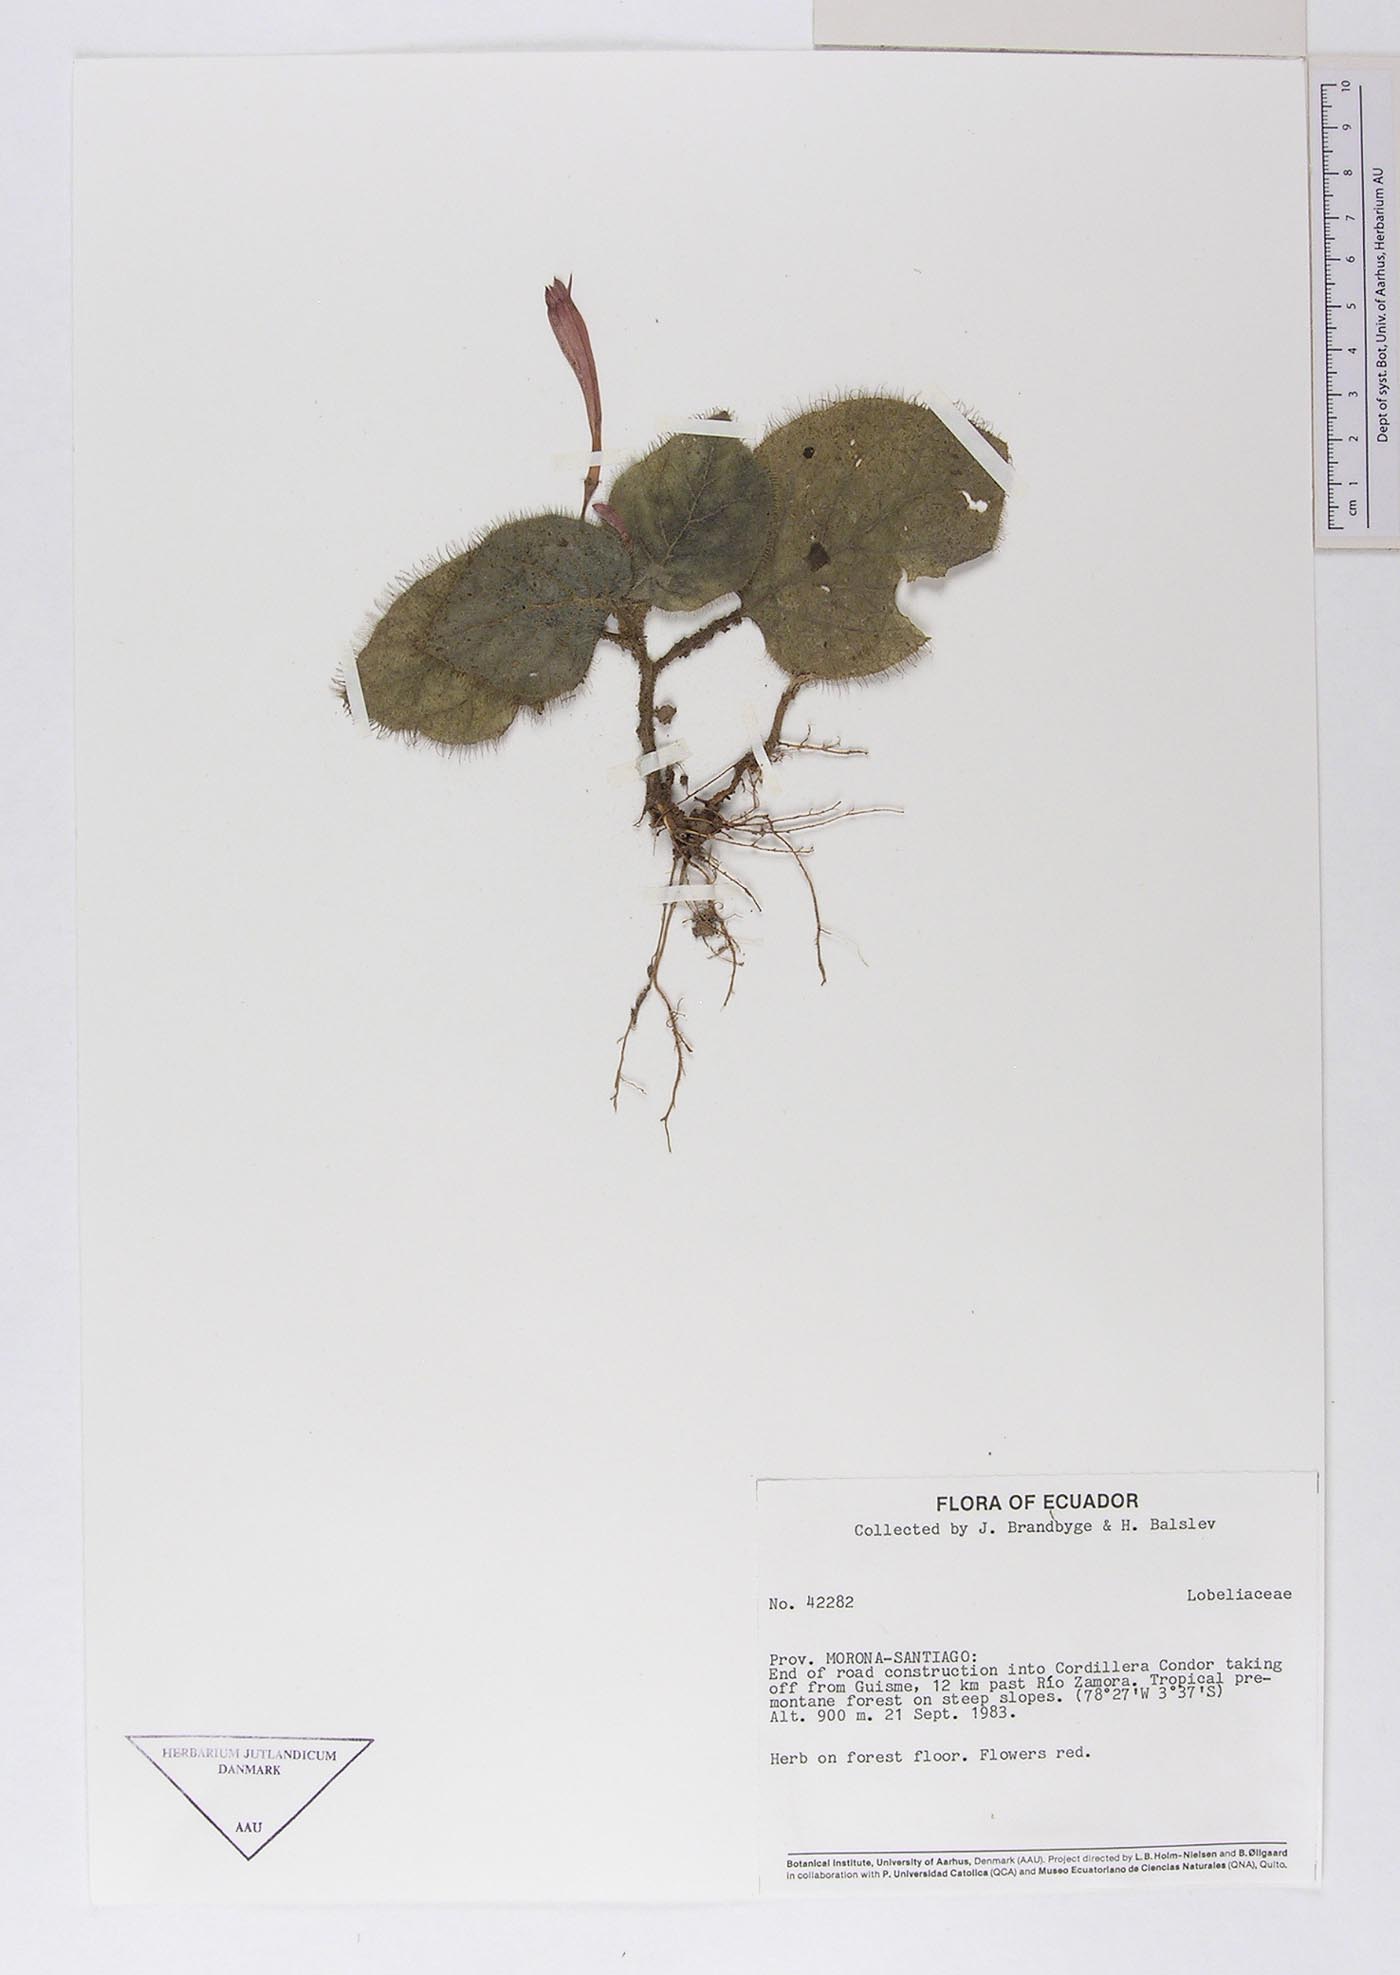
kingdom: Plantae
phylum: Tracheophyta
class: Magnoliopsida
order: Asterales
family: Campanulaceae
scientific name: Campanulaceae
